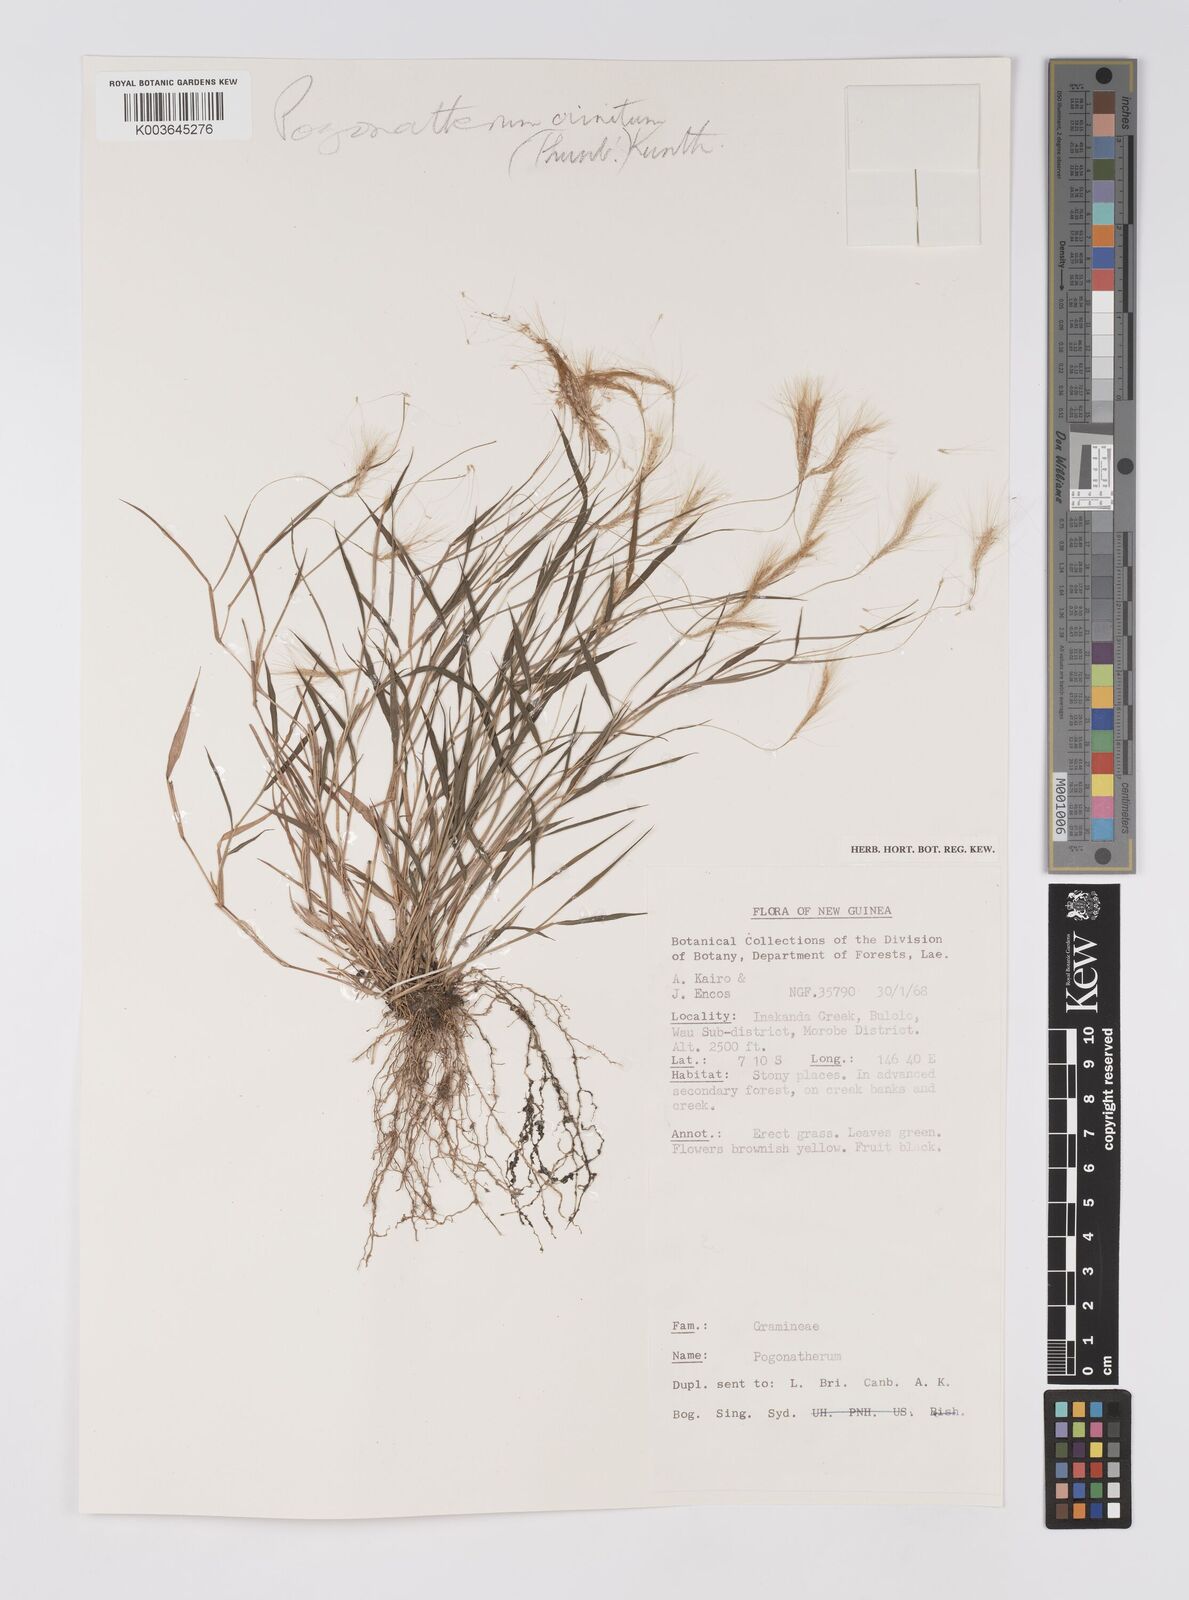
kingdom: Plantae
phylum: Tracheophyta
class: Liliopsida
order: Poales
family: Poaceae
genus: Pogonatherum
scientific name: Pogonatherum crinitum
